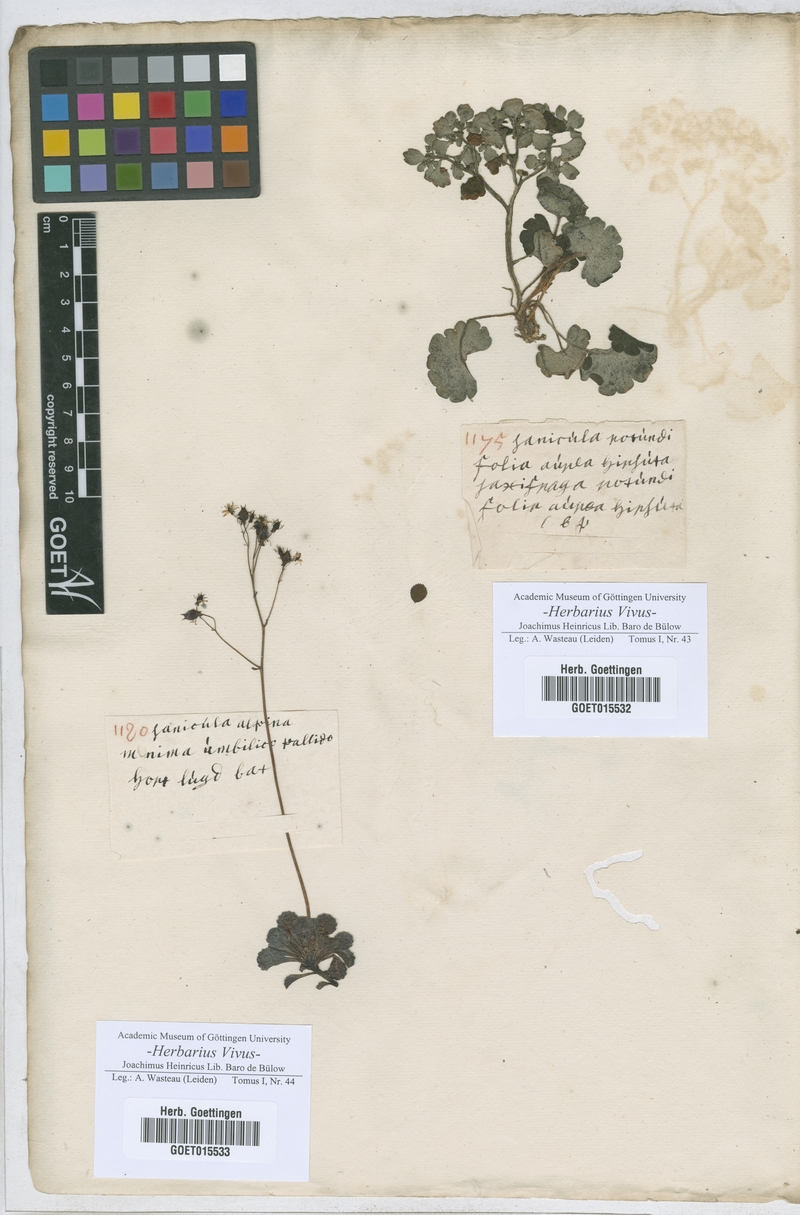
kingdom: Plantae
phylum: Tracheophyta
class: Magnoliopsida
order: Saxifragales
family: Saxifragaceae
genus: Chrysosplenium
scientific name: Chrysosplenium oppositifolium
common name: Opposite-leaved golden-saxifrage
